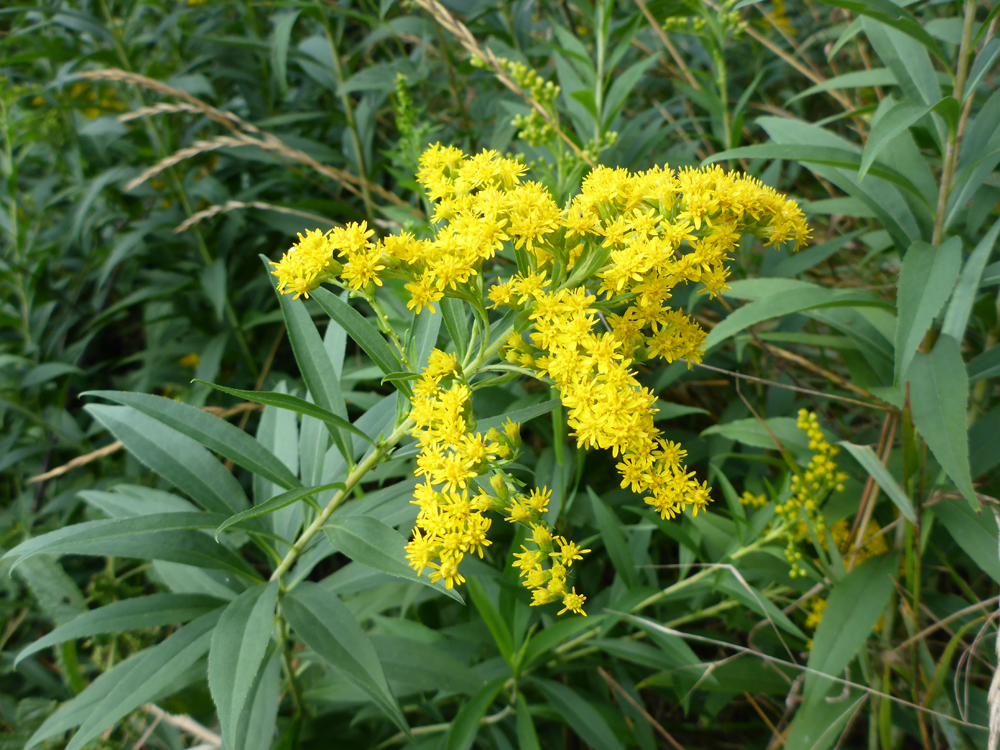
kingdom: Plantae
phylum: Tracheophyta
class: Magnoliopsida
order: Asterales
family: Asteraceae
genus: Solidago
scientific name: Solidago gigantea
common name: Giant goldenrod
